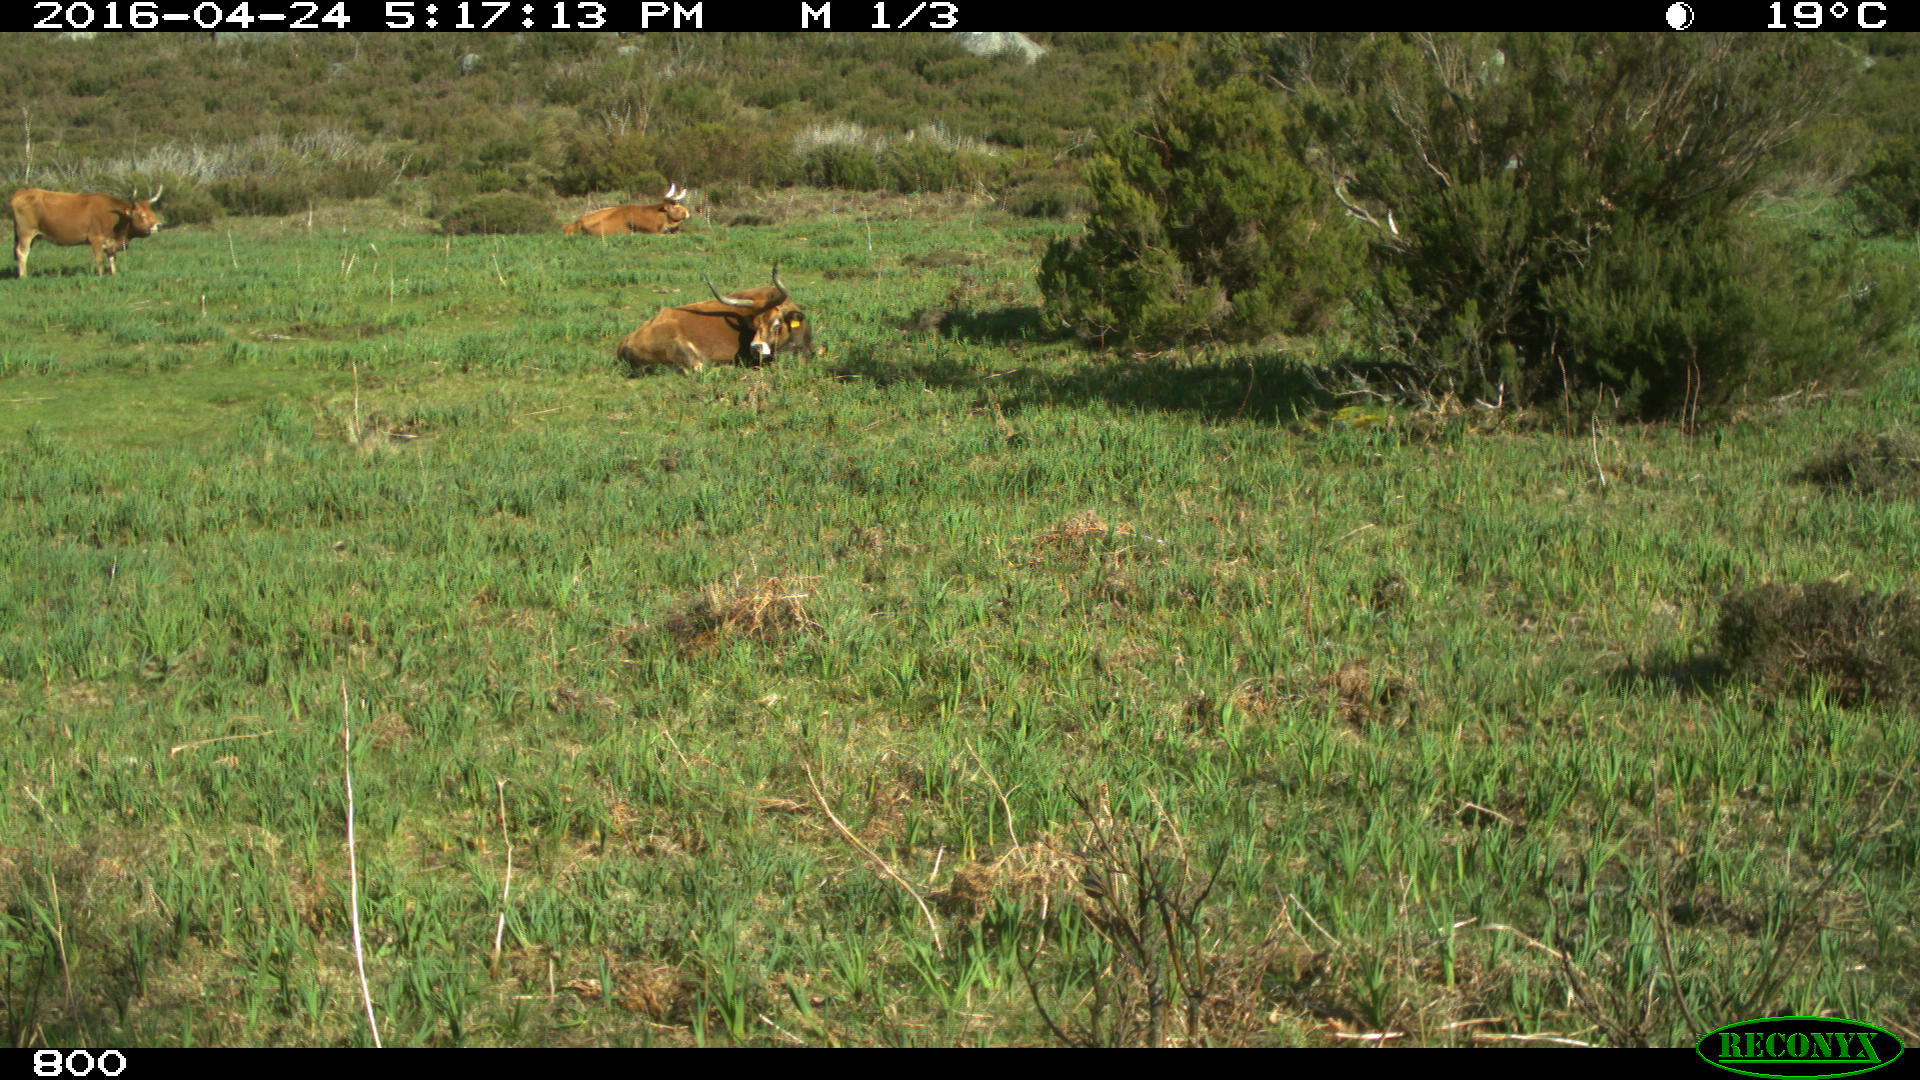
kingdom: Animalia
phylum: Chordata
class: Mammalia
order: Artiodactyla
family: Bovidae
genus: Bos
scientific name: Bos taurus
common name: Domesticated cattle
